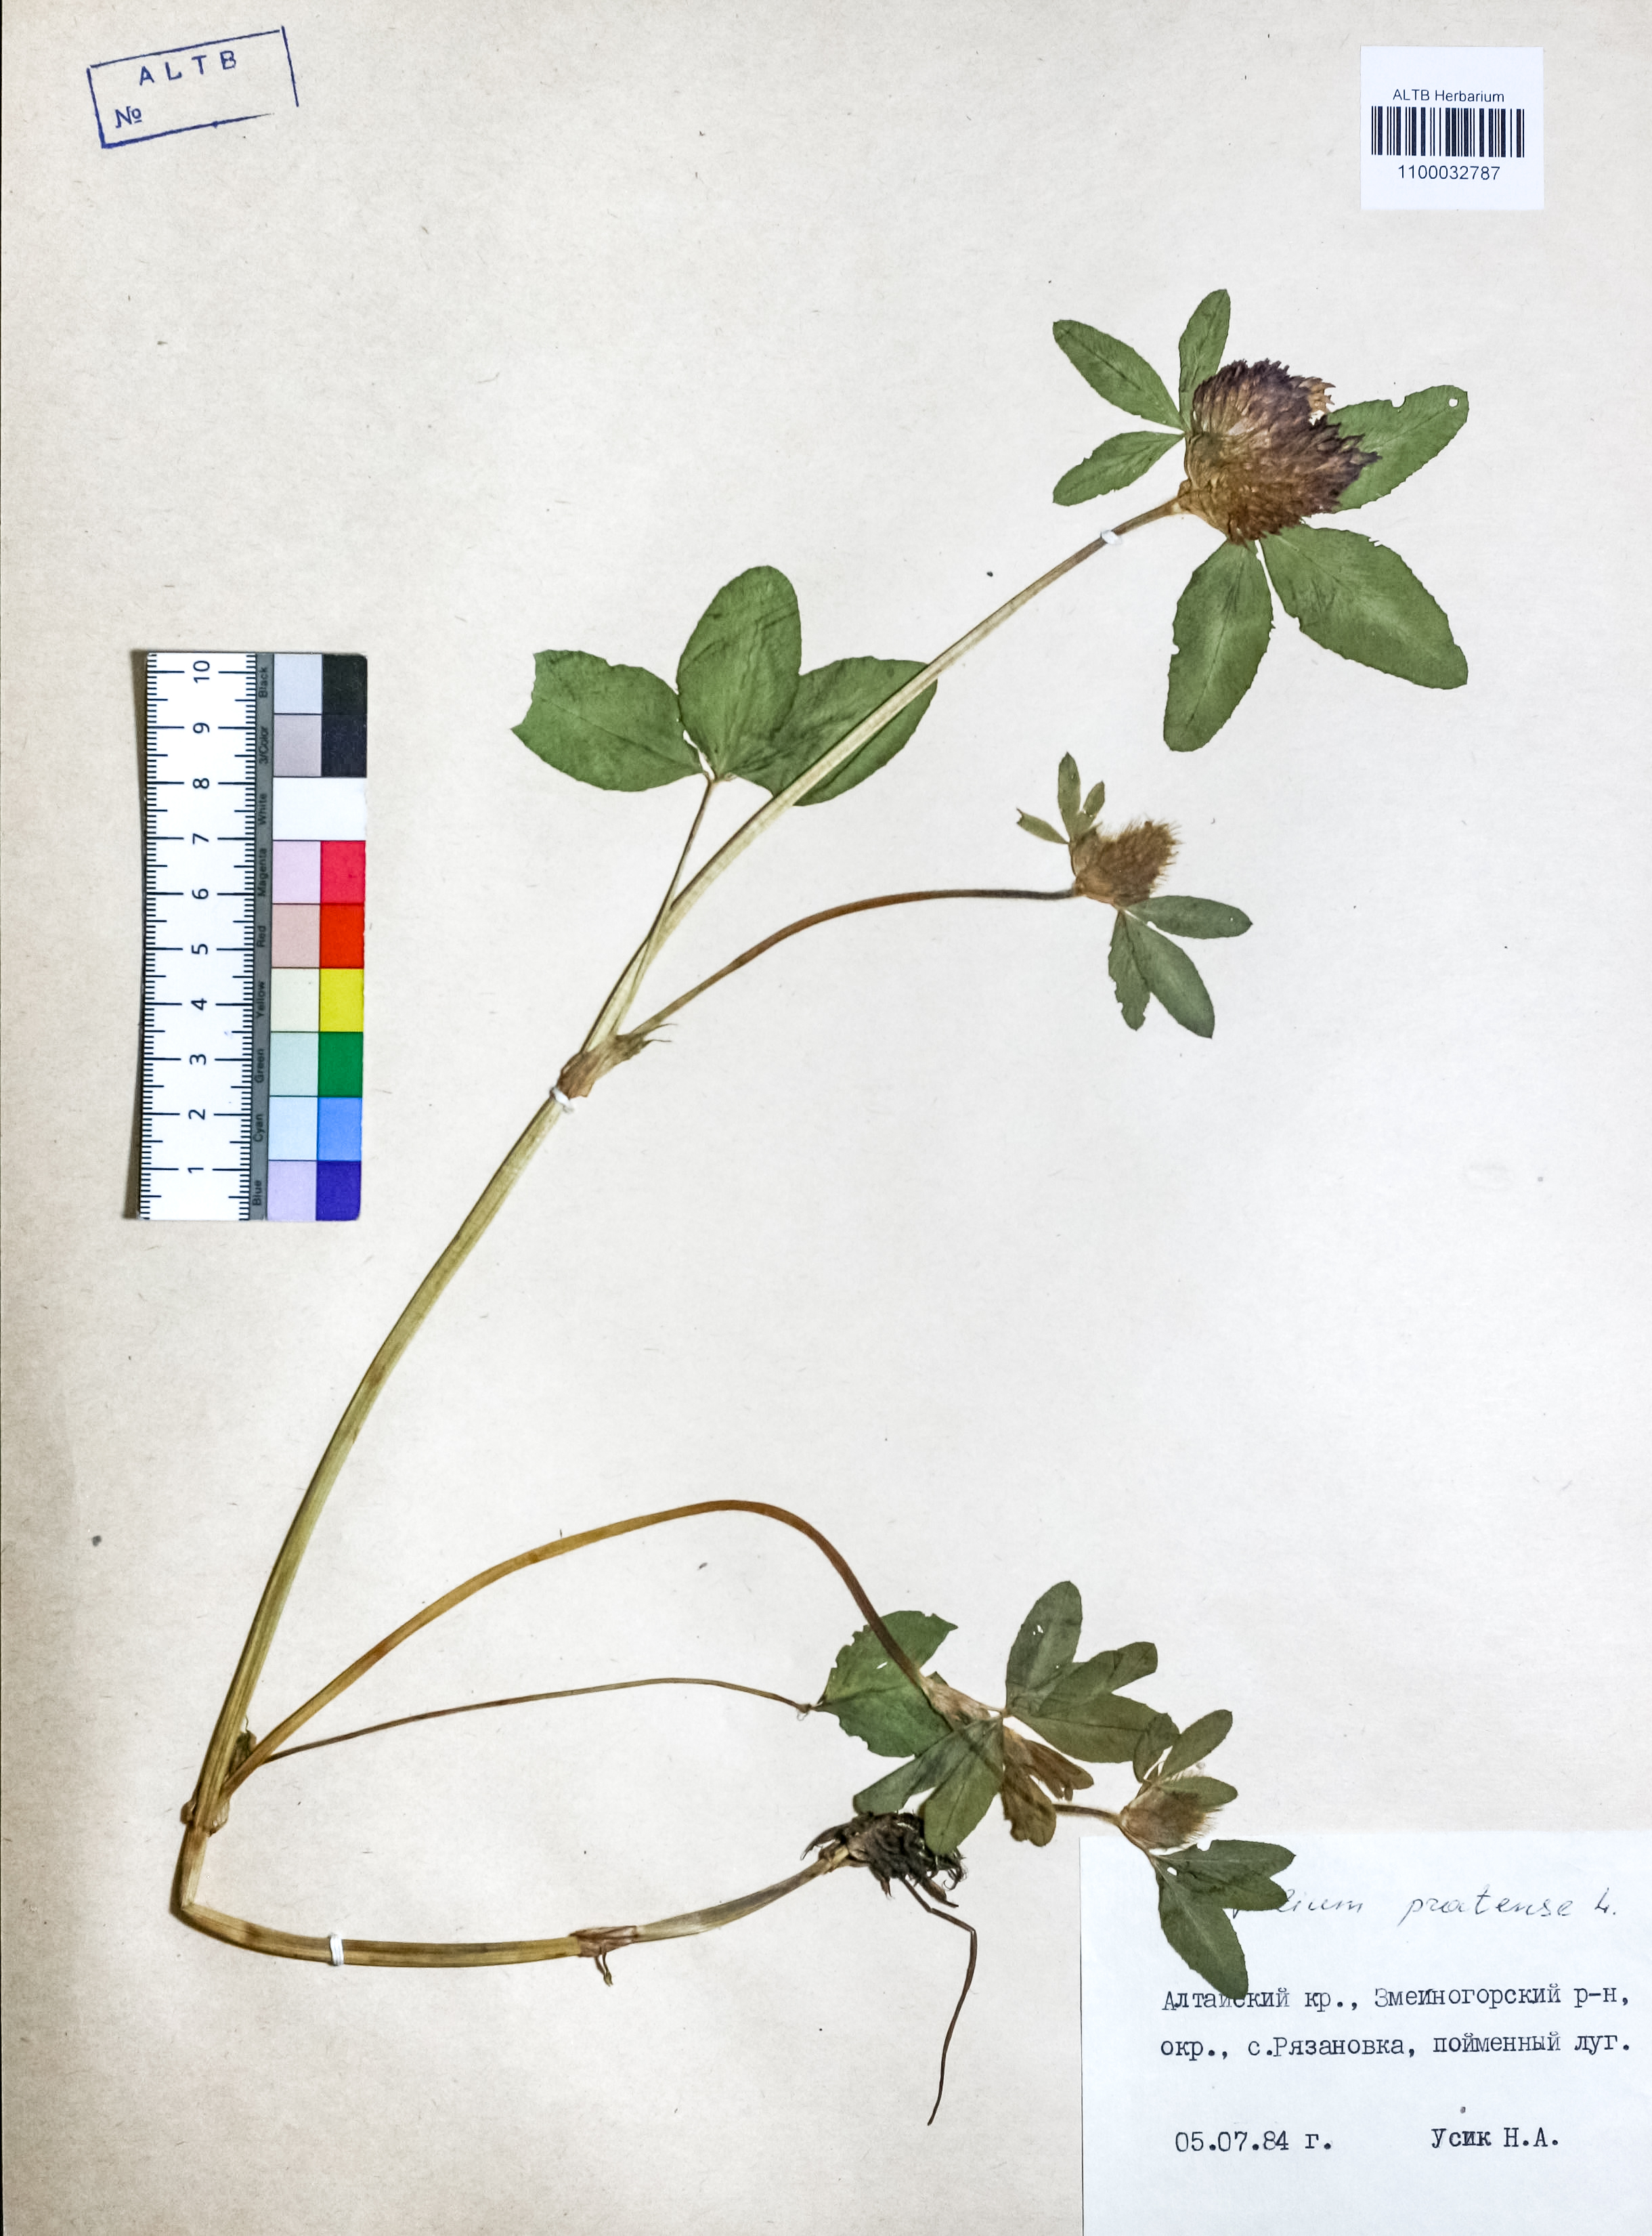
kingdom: Plantae
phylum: Tracheophyta
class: Magnoliopsida
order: Fabales
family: Fabaceae
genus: Trifolium
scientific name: Trifolium pratense
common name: Red clover
